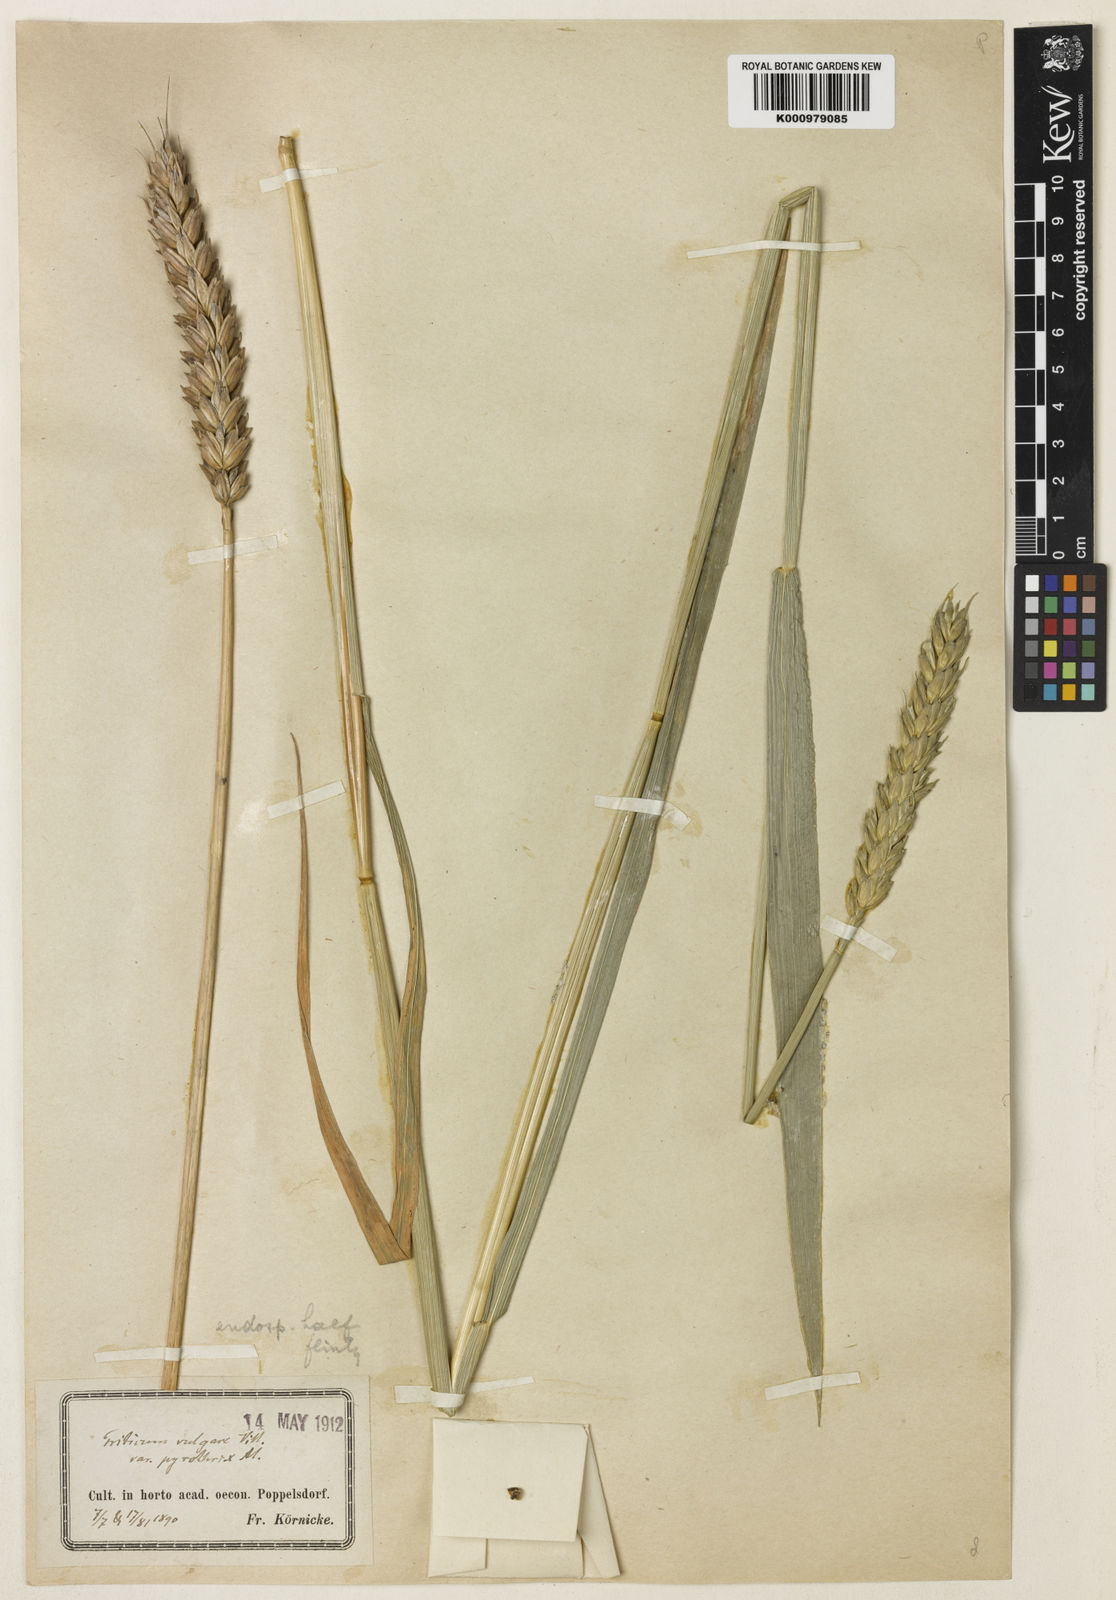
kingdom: Plantae
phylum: Tracheophyta
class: Liliopsida
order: Poales
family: Poaceae
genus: Triticum
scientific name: Triticum aestivum
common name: Common wheat
